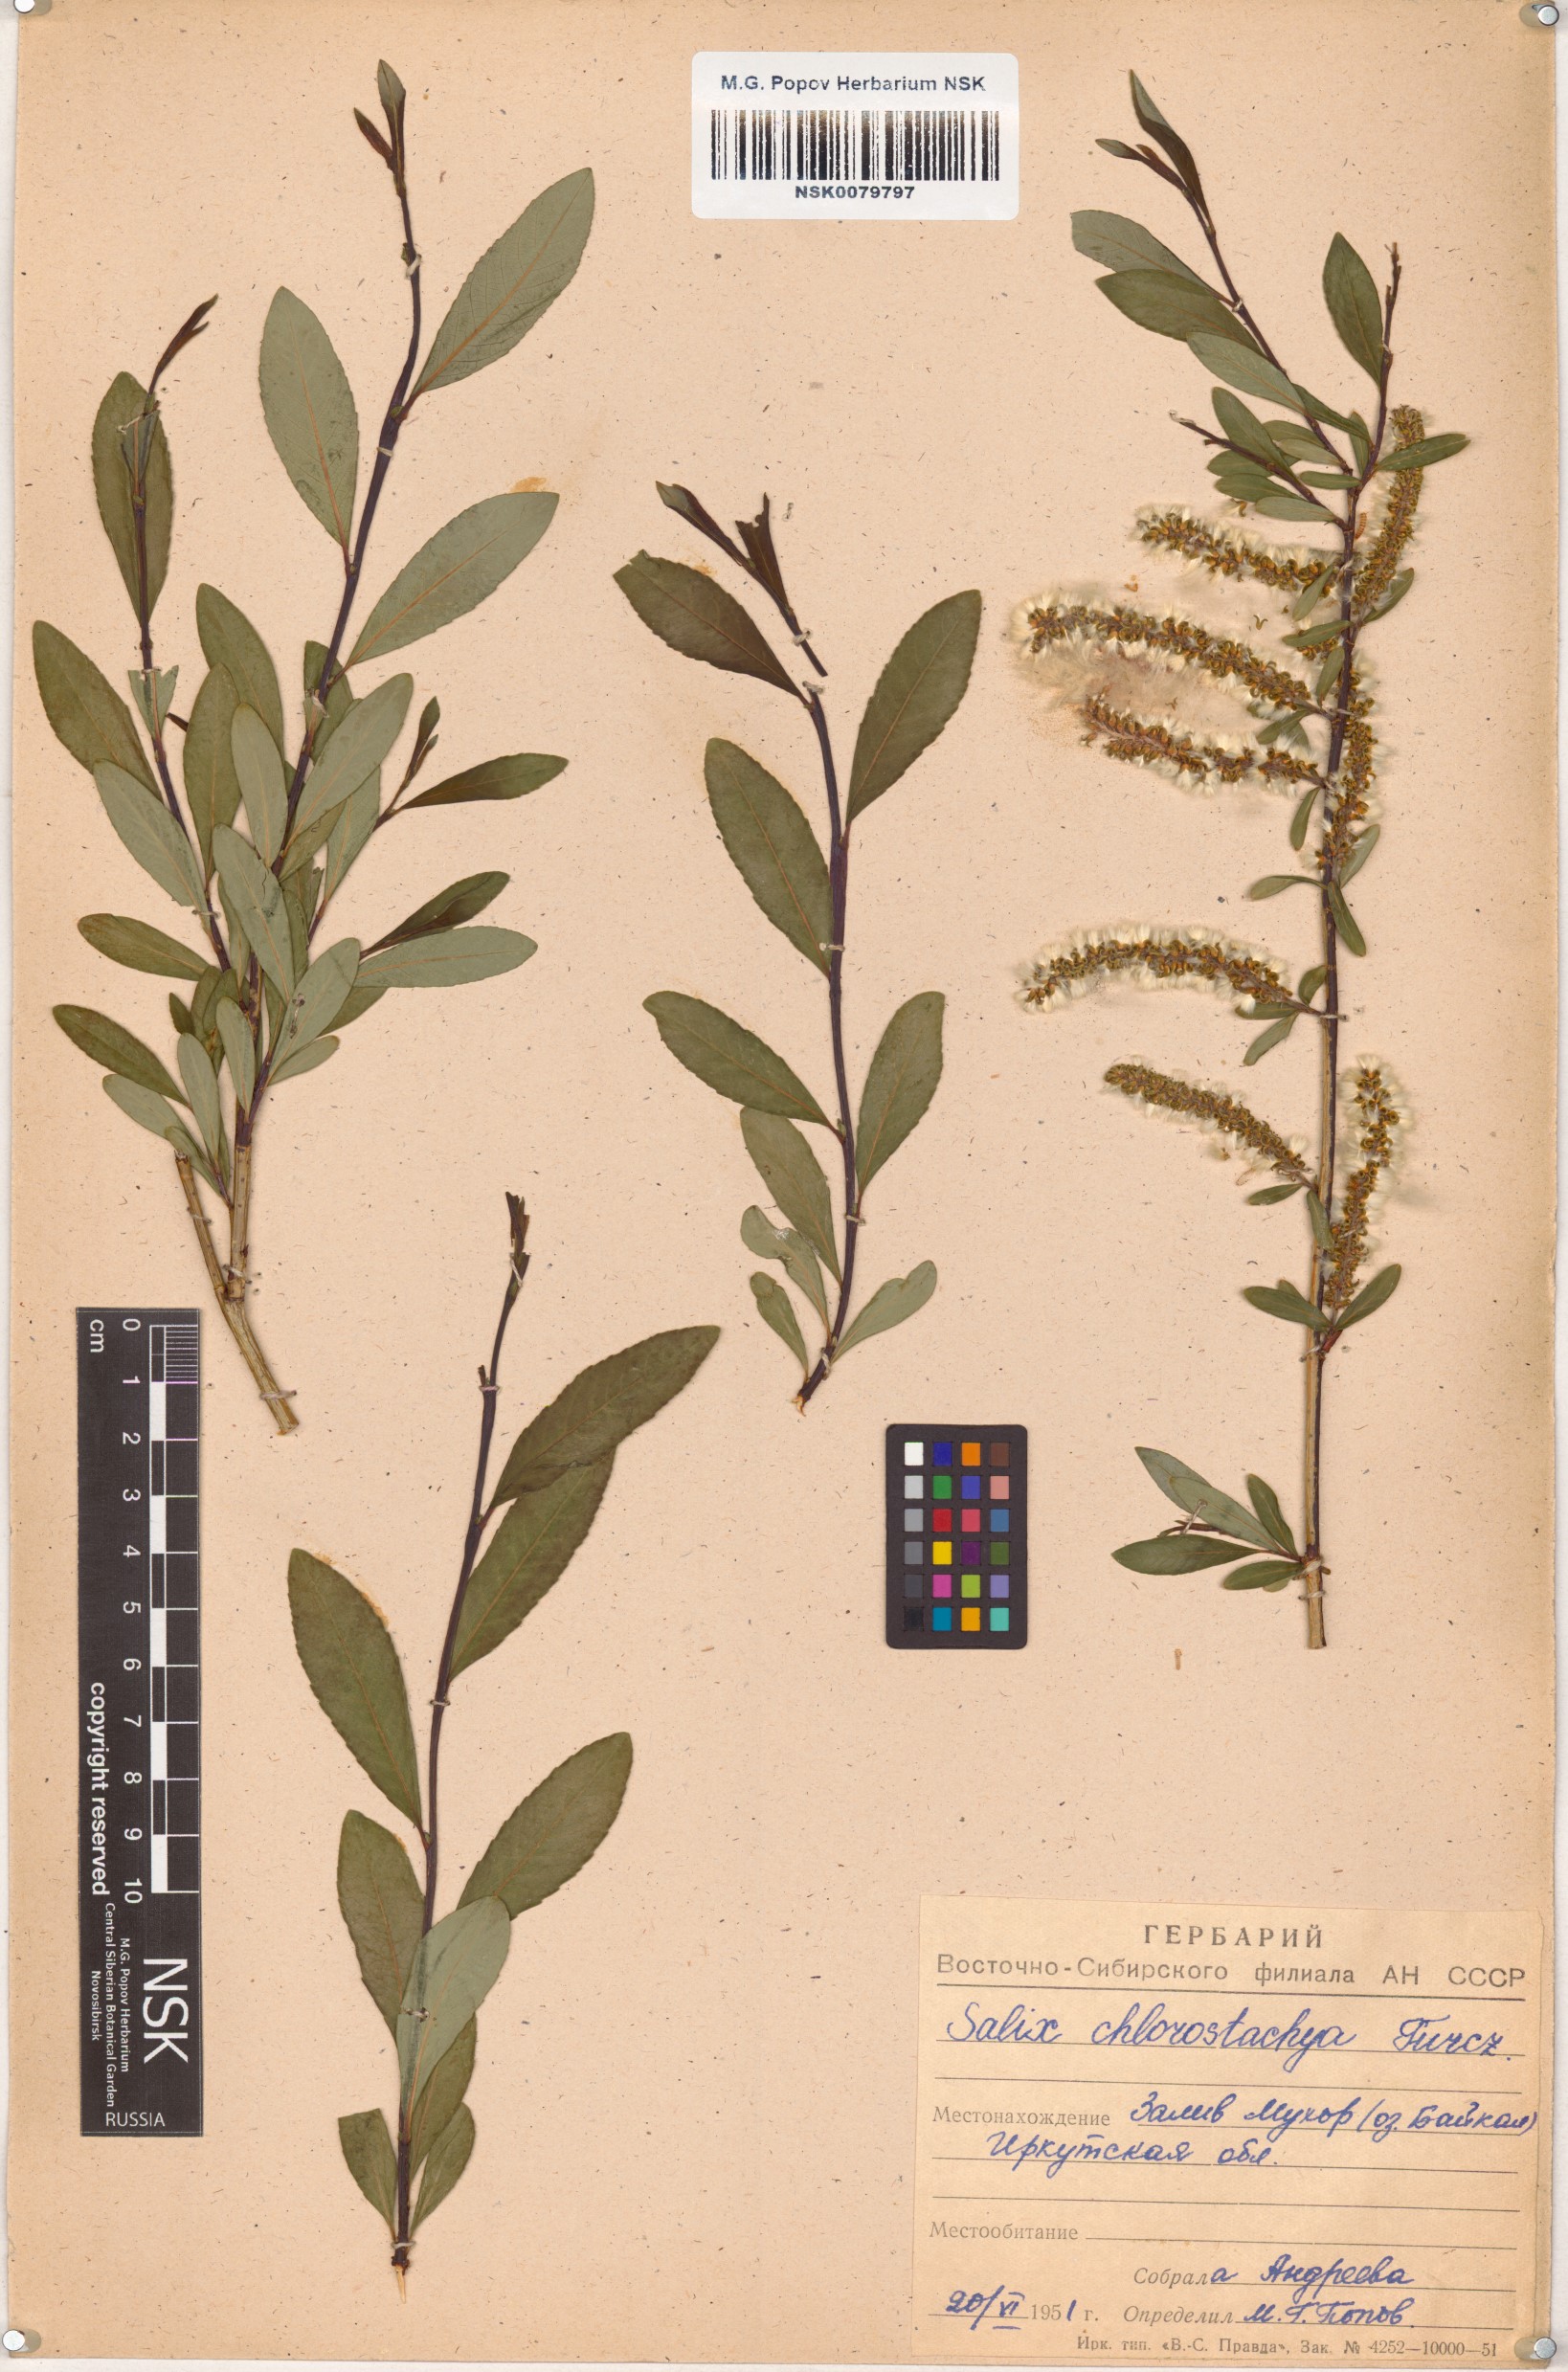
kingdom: Plantae
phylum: Tracheophyta
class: Magnoliopsida
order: Malpighiales
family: Salicaceae
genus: Salix
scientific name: Salix rhamnifolia
